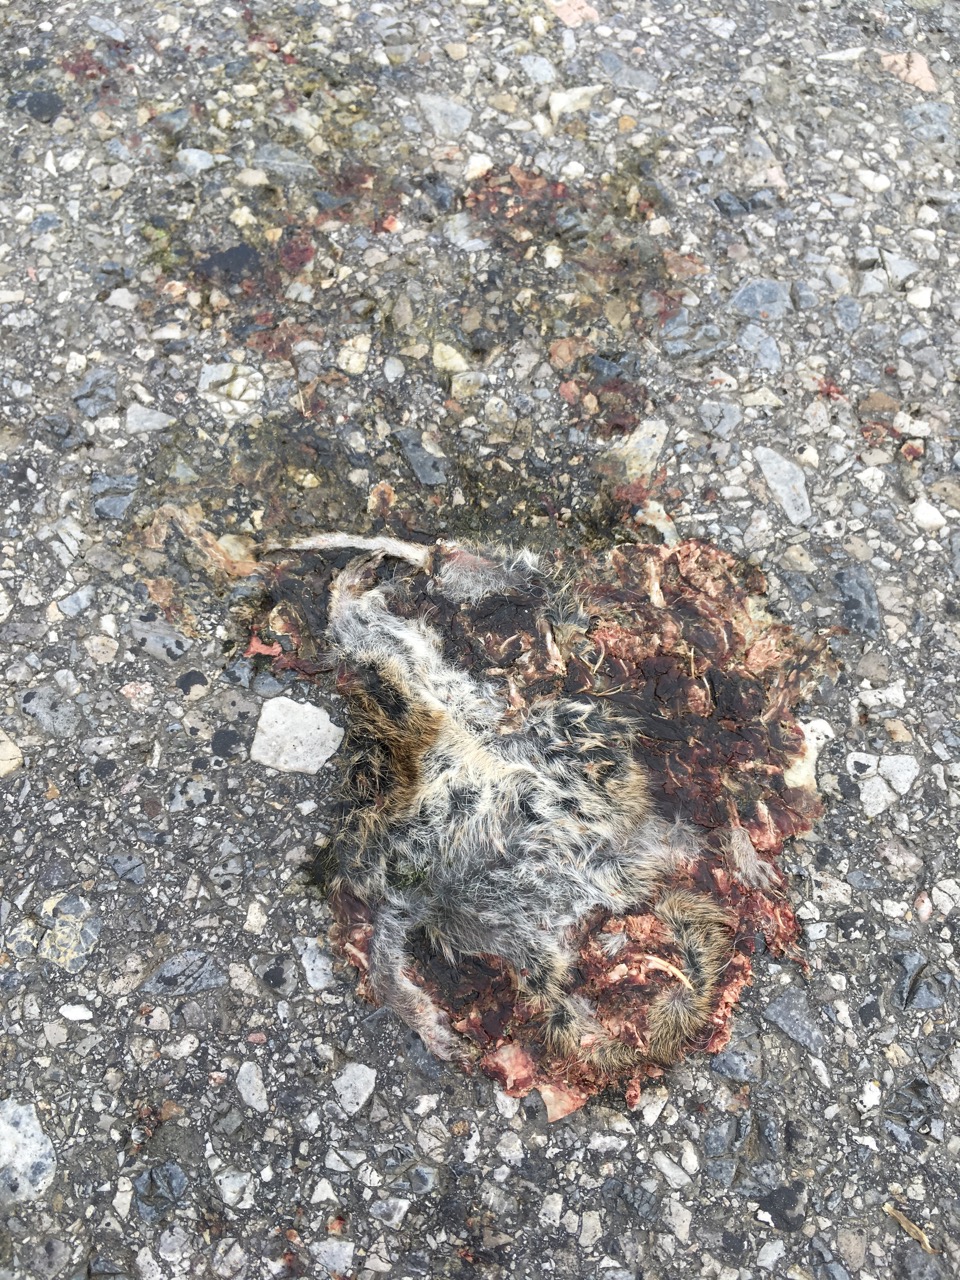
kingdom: Animalia
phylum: Chordata
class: Mammalia
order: Rodentia
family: Cricetidae
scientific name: Cricetidae
